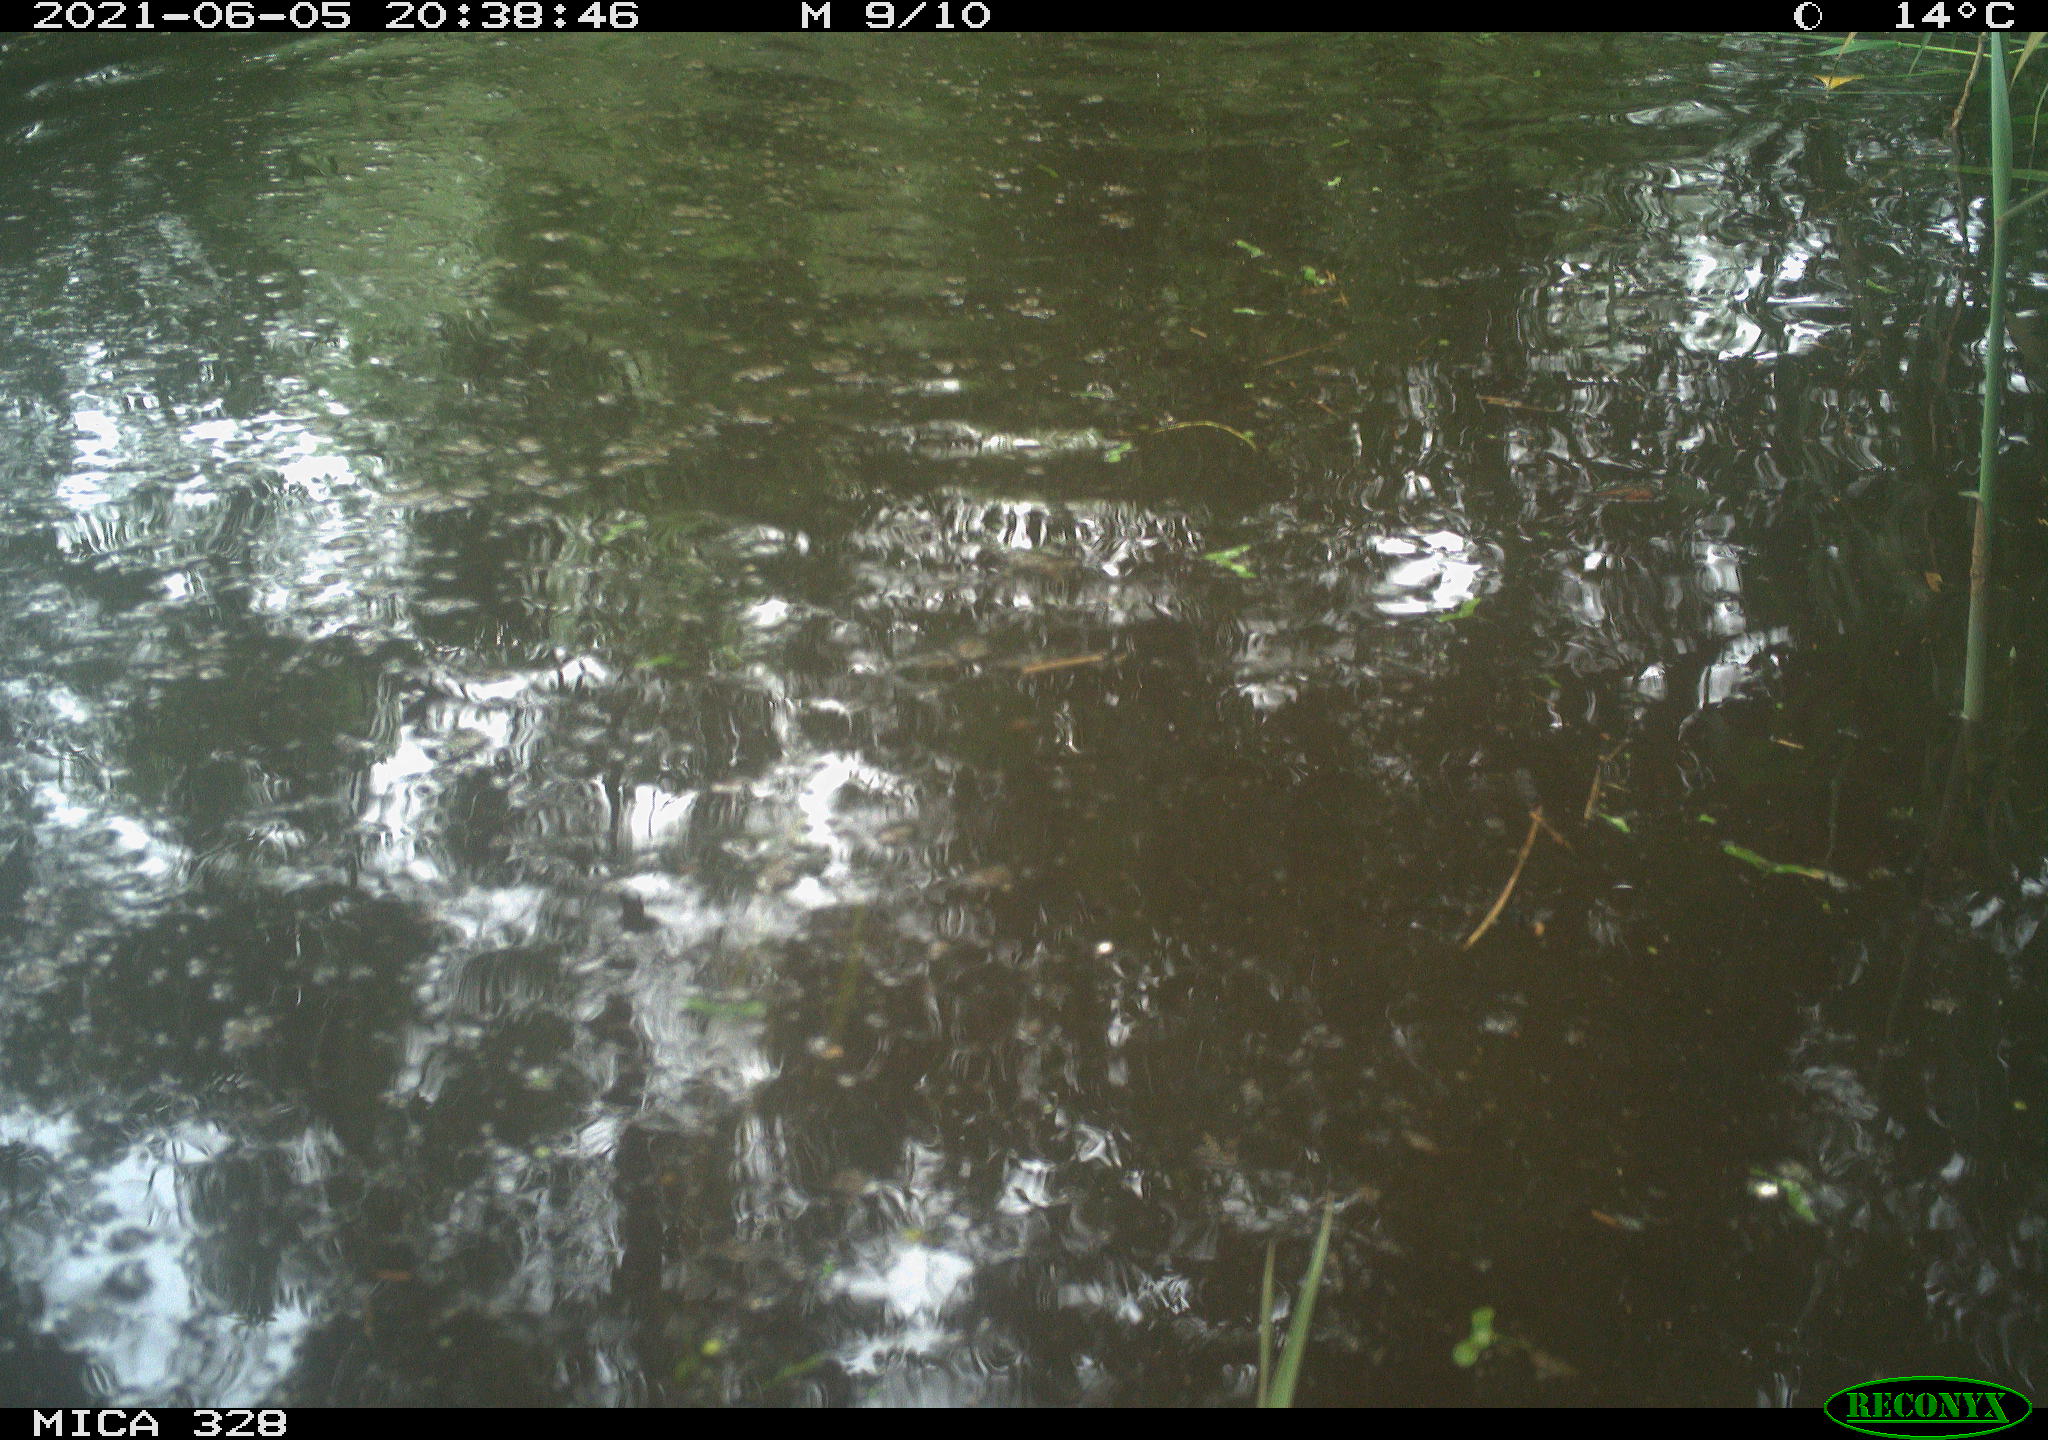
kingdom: Animalia
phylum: Chordata
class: Mammalia
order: Rodentia
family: Cricetidae
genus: Ondatra
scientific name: Ondatra zibethicus
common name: Muskrat
